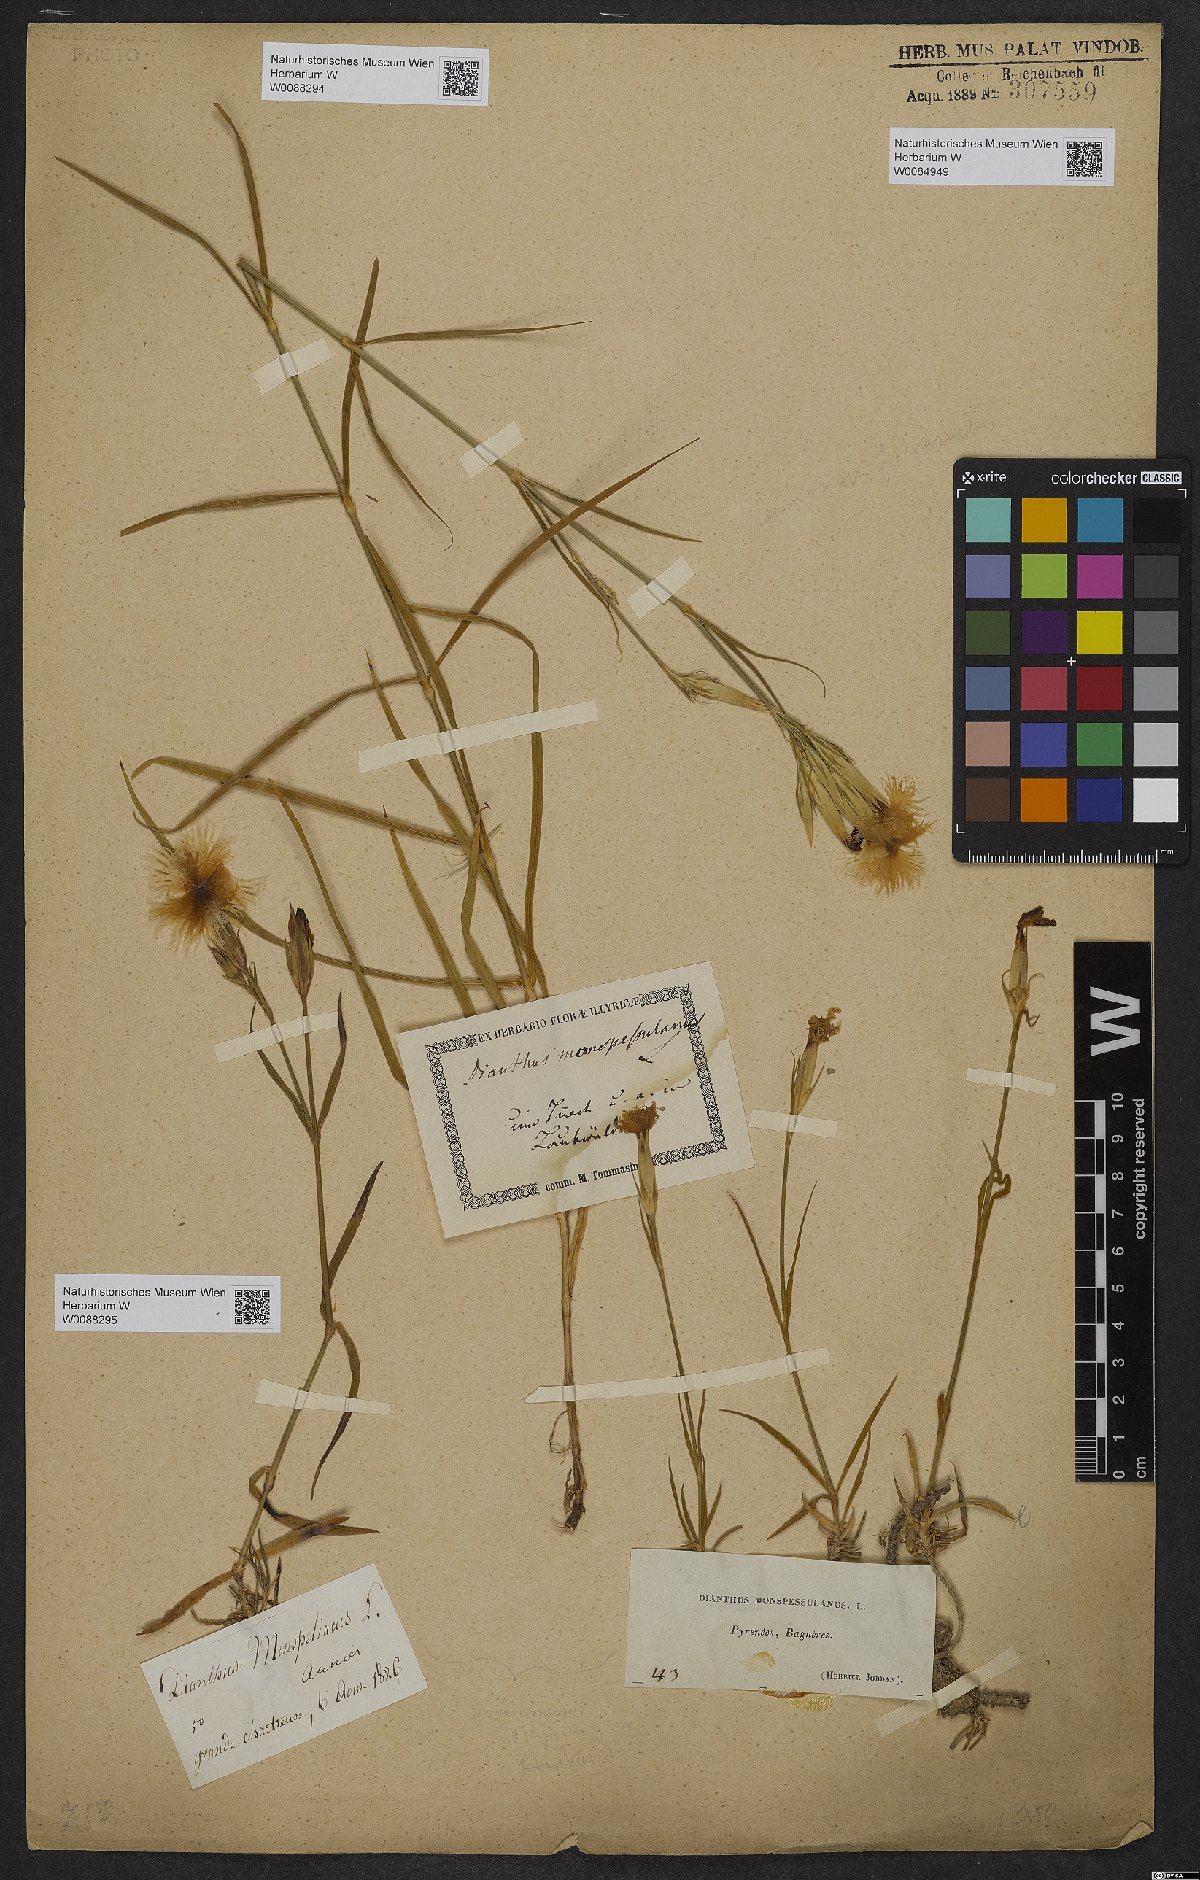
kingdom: Plantae
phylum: Tracheophyta
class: Magnoliopsida
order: Caryophyllales
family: Caryophyllaceae
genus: Dianthus
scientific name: Dianthus hyssopifolius
